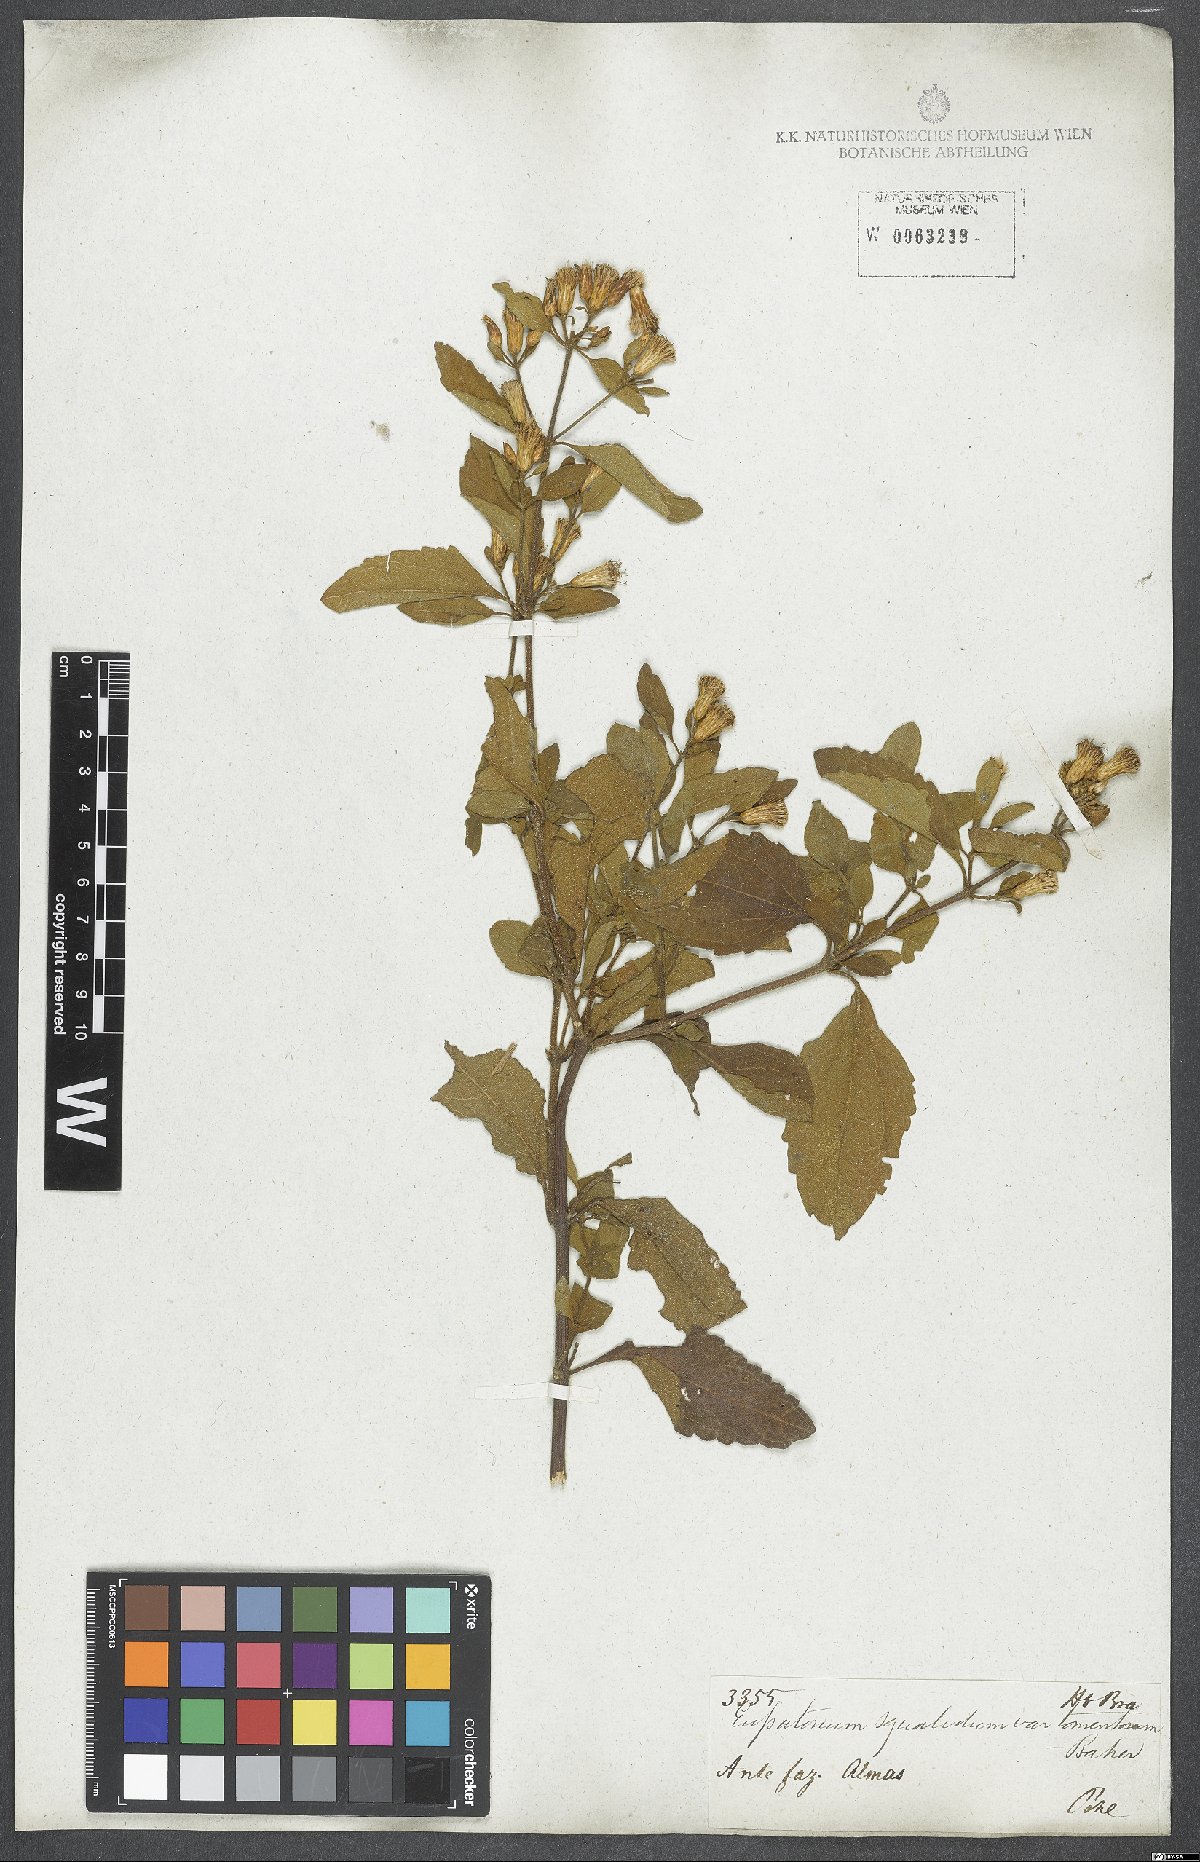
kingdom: Plantae
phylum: Tracheophyta
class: Magnoliopsida
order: Asterales
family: Asteraceae
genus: Chromolaena
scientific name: Chromolaena squalida
